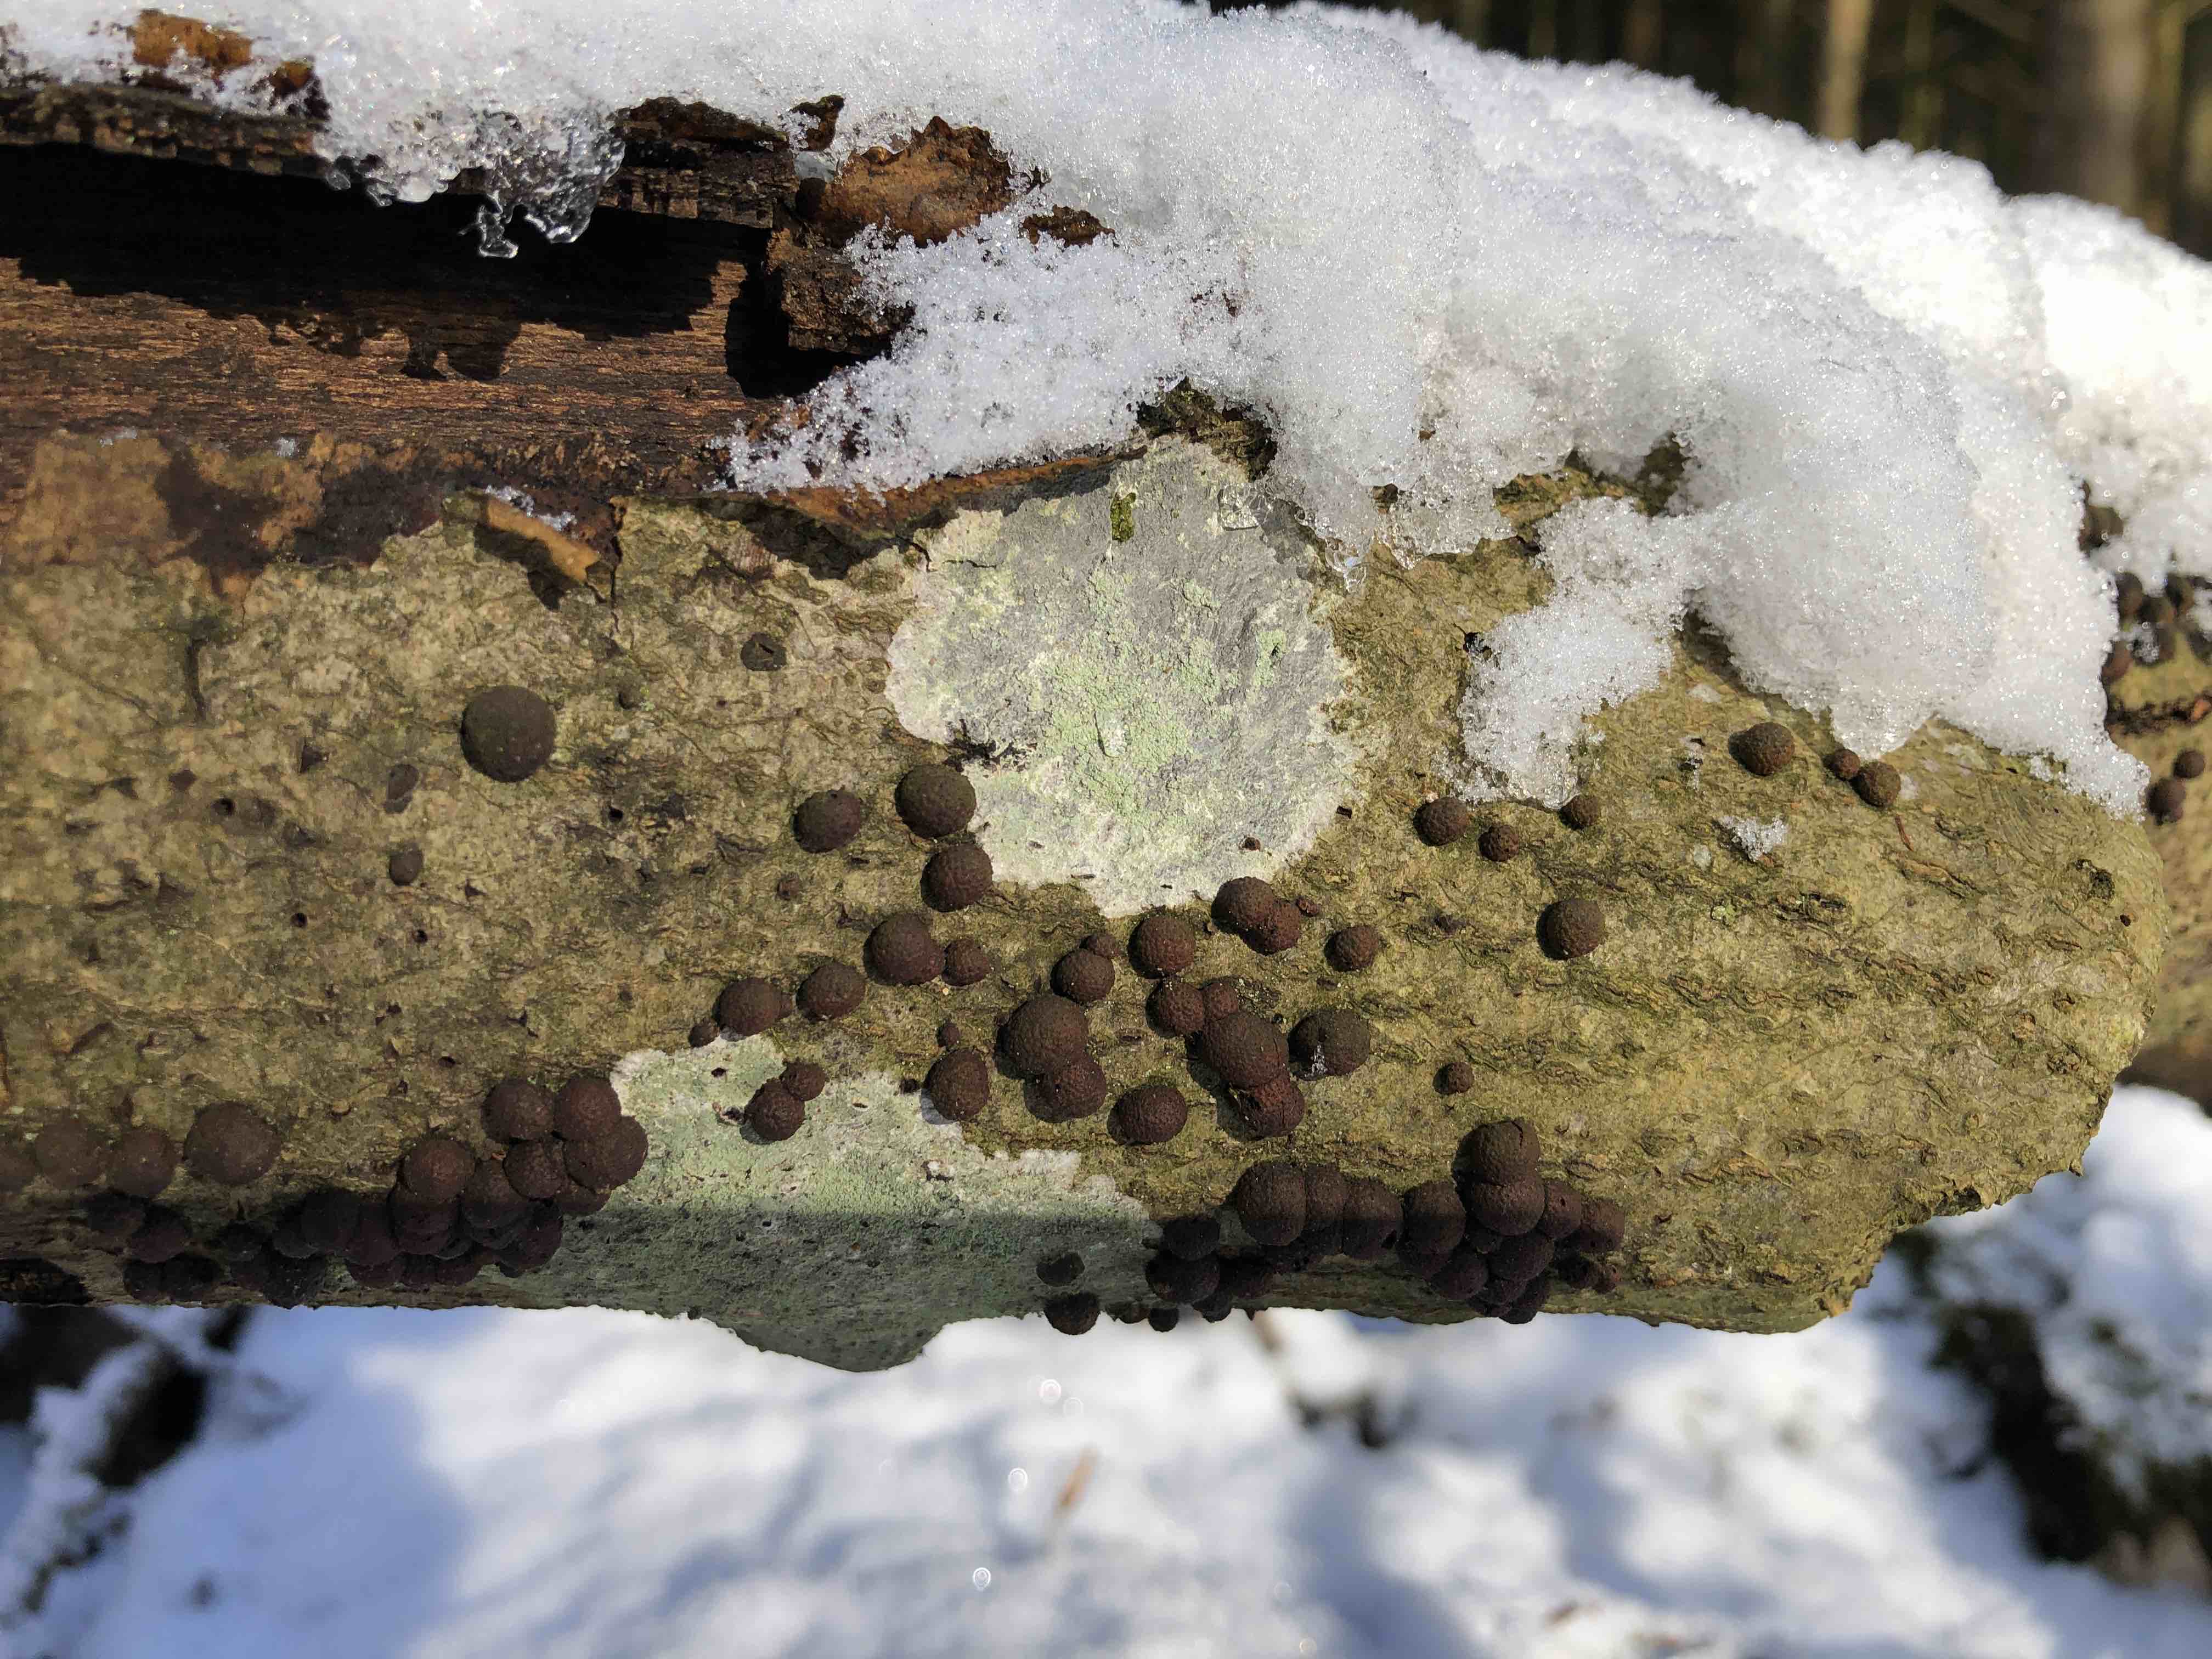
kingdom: Fungi
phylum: Ascomycota
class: Sordariomycetes
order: Hypocreales
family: Nectriaceae
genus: Cosmospora
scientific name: Cosmospora arxii
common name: kuljordbær-cinnobersvamp
